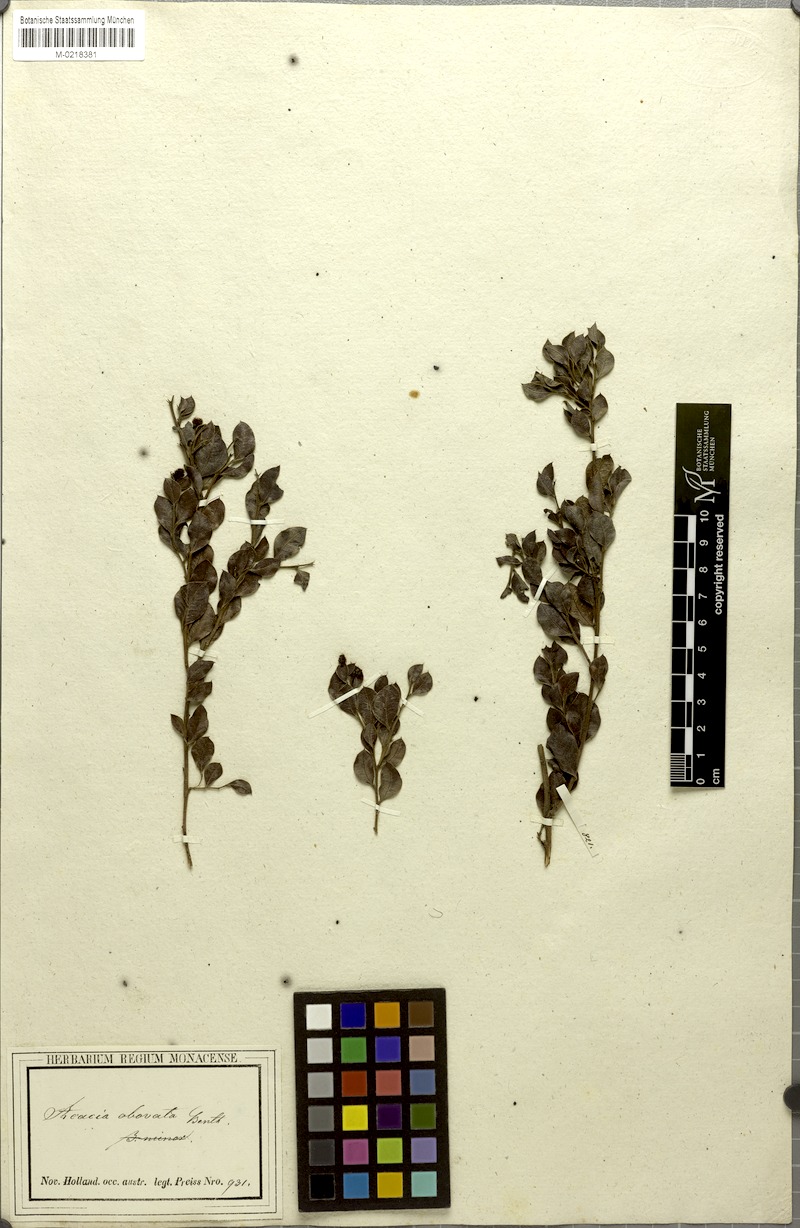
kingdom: Plantae
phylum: Tracheophyta
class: Magnoliopsida
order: Fabales
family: Fabaceae
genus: Acacia
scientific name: Acacia obovata
